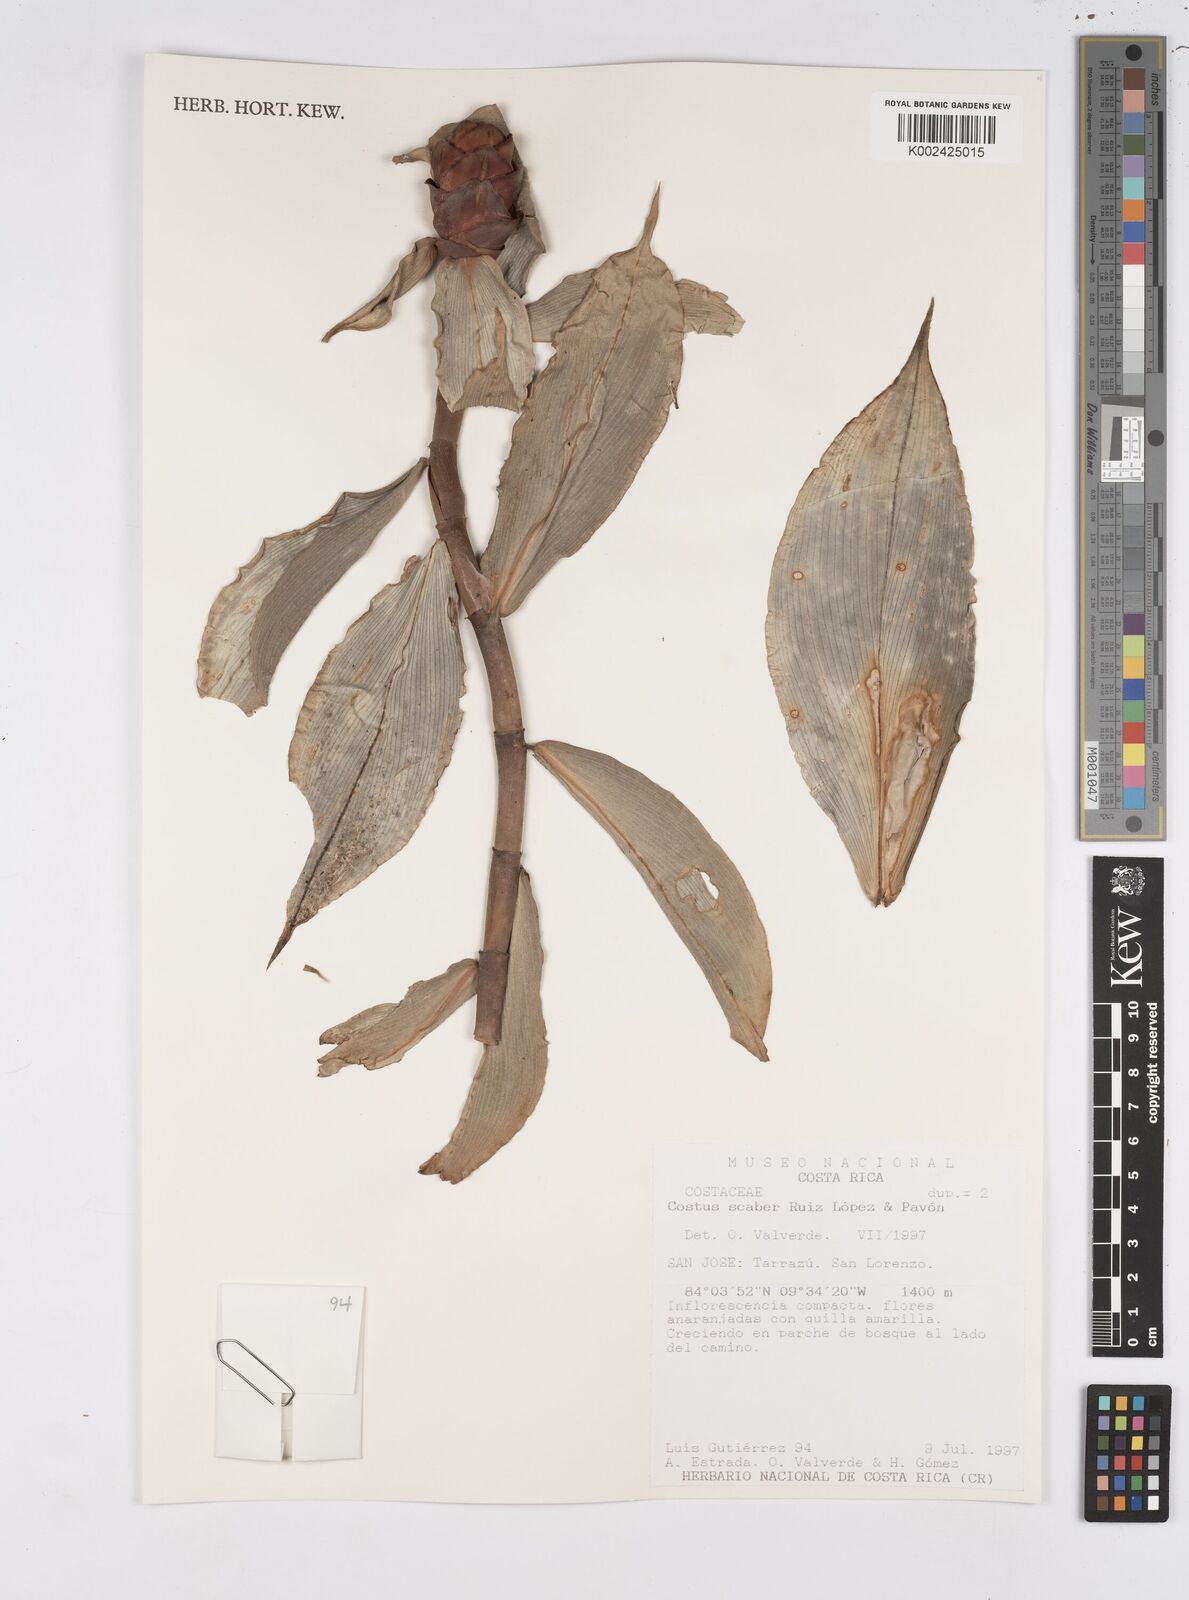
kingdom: Plantae
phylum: Tracheophyta
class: Liliopsida
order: Zingiberales
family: Costaceae
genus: Costus
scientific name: Costus scaber
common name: Spiral head ginger
